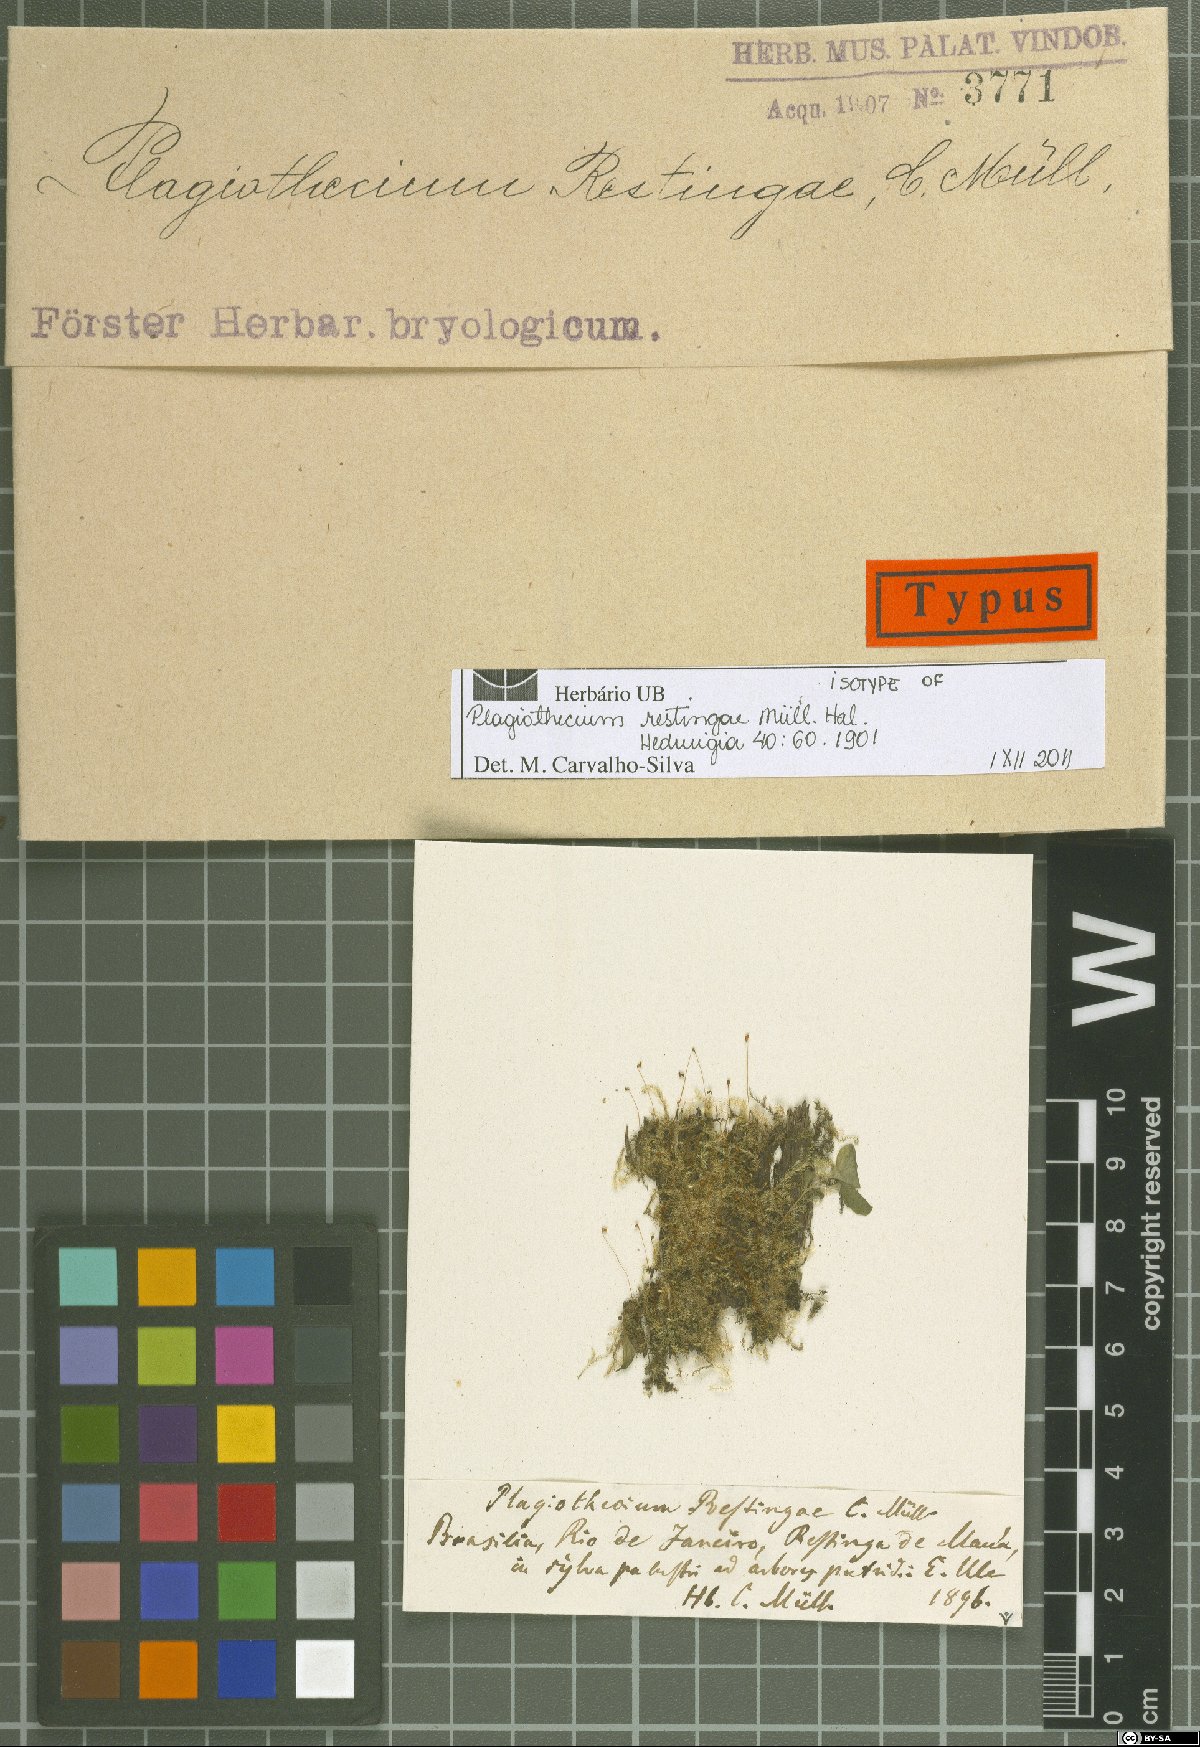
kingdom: Plantae
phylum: Bryophyta
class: Bryopsida
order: Hypnales
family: Pylaisiadelphaceae
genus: Isopterygium
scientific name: Isopterygium tenerifolium
